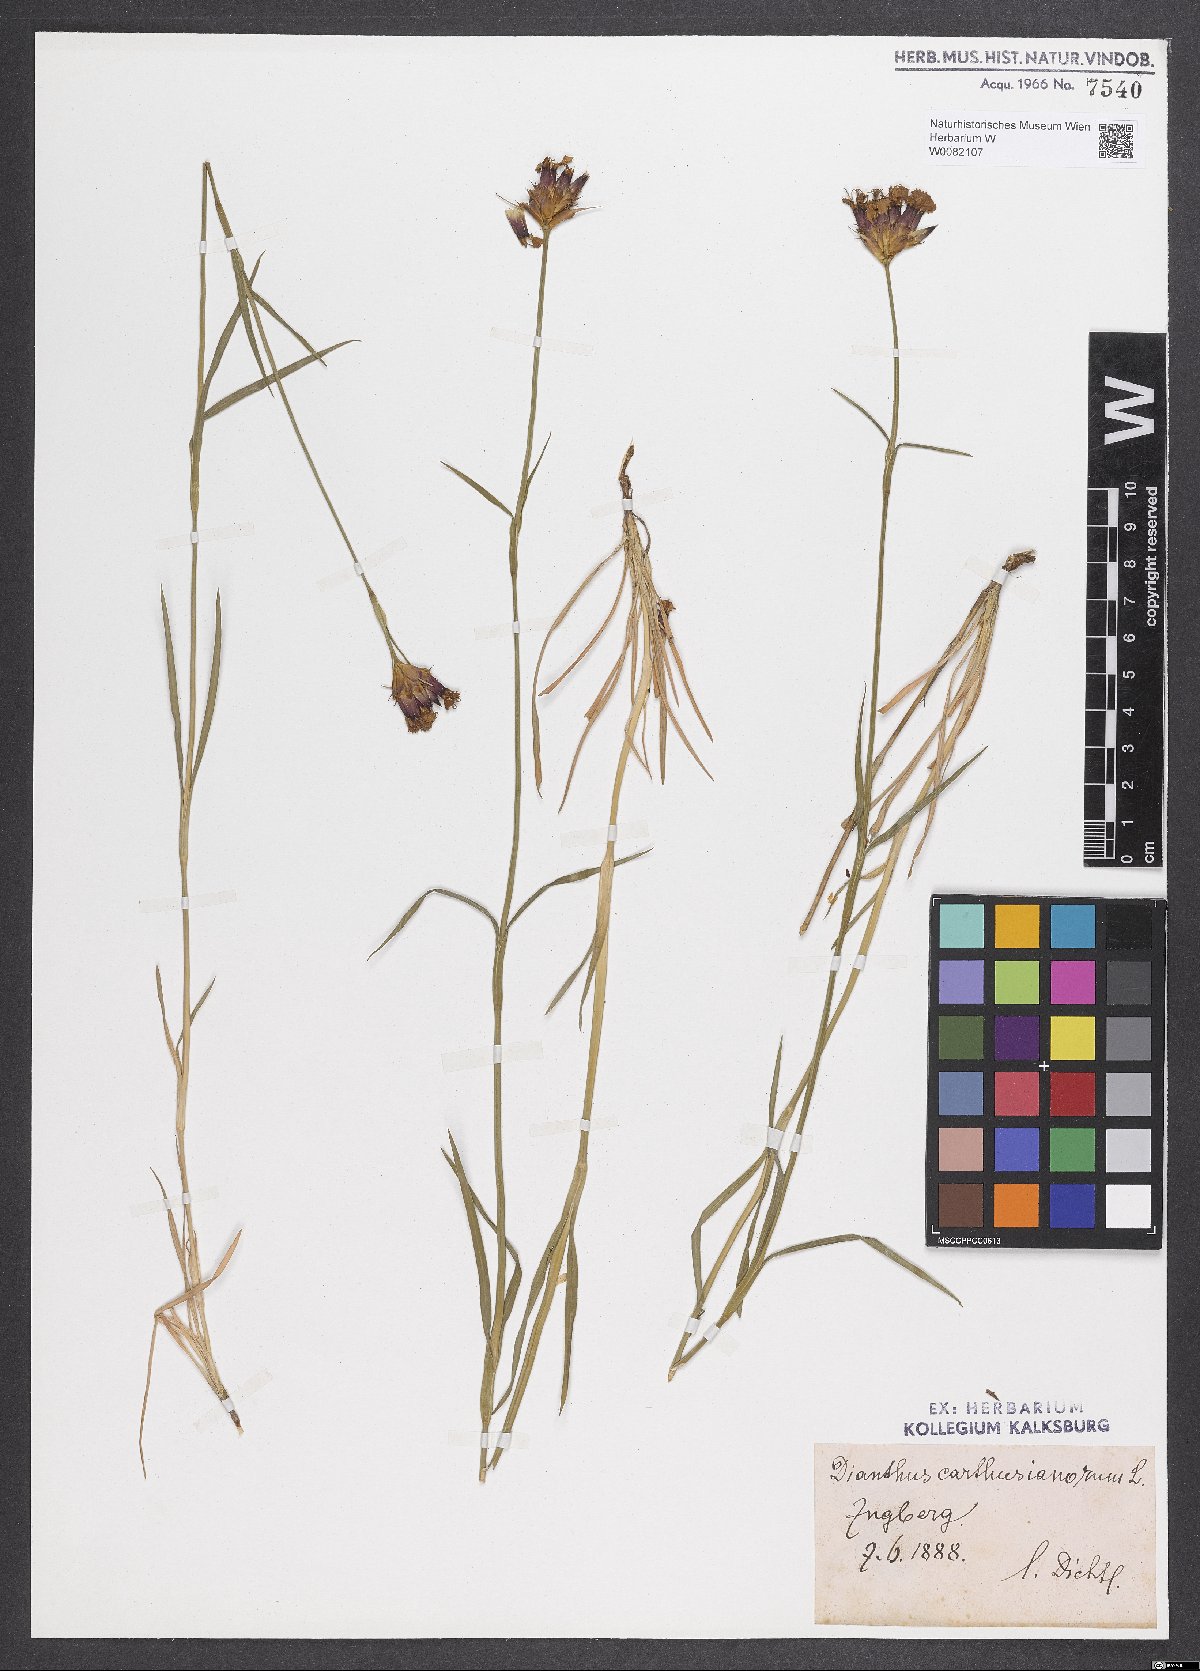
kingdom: Plantae
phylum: Tracheophyta
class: Magnoliopsida
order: Caryophyllales
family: Caryophyllaceae
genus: Dianthus
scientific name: Dianthus carthusianorum
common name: Carthusian pink
